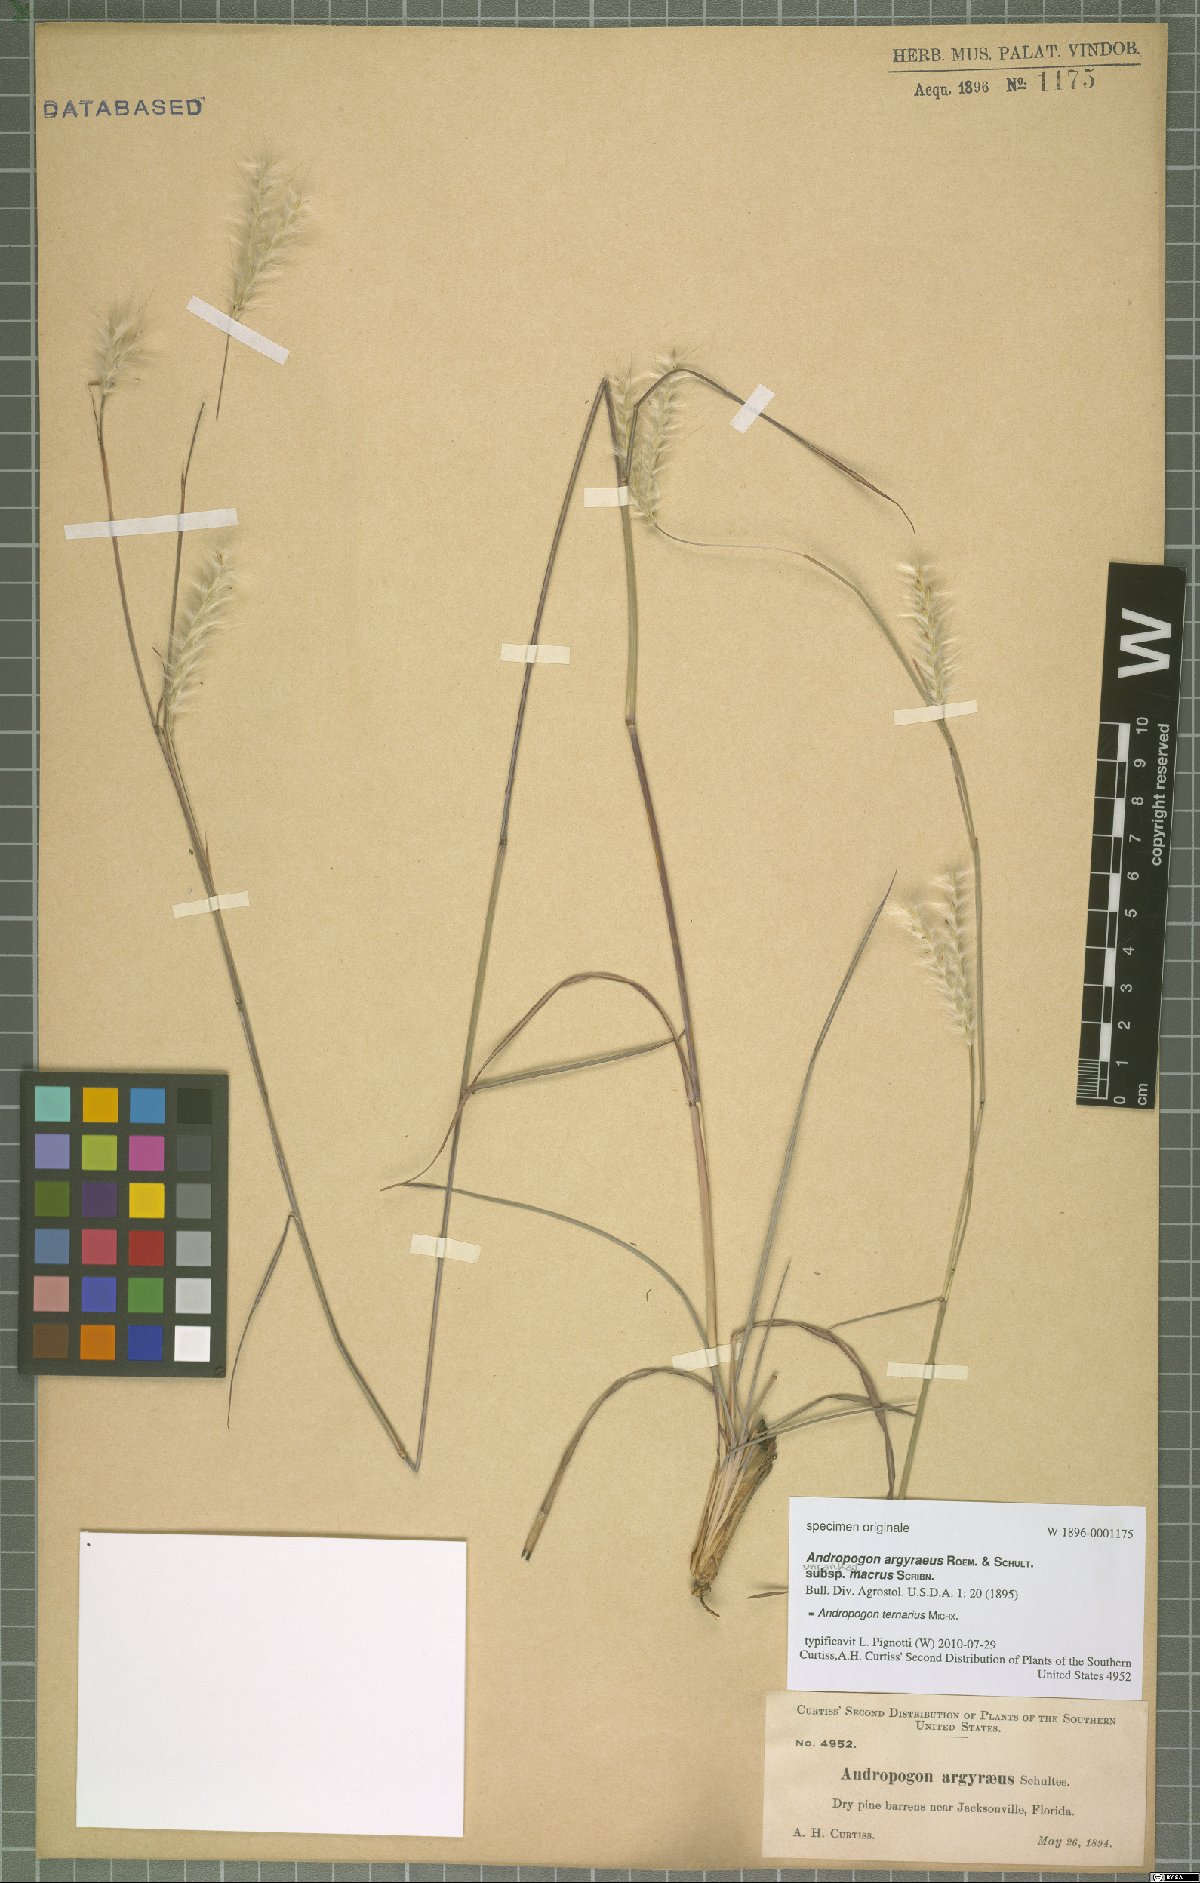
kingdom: Plantae
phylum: Tracheophyta
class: Liliopsida
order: Poales
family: Poaceae
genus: Andropogon
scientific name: Andropogon ternarius
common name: Split bluestem
